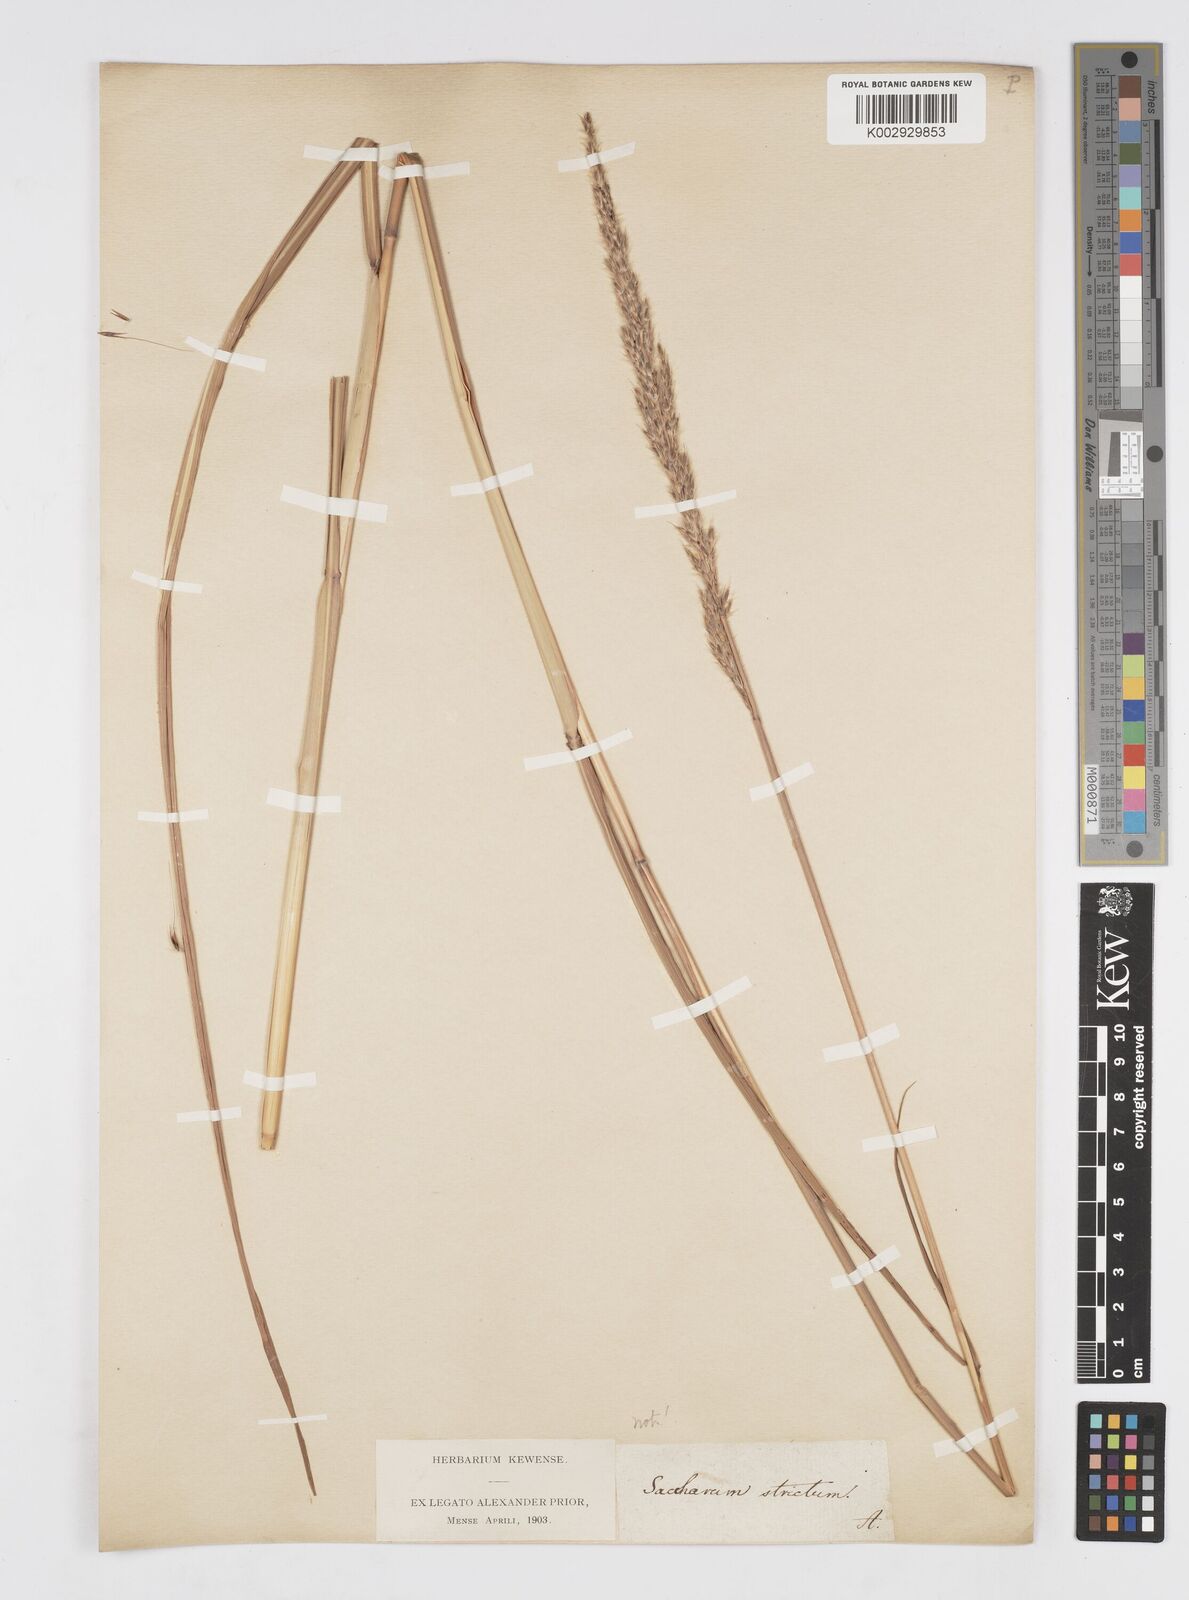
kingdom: Plantae
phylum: Tracheophyta
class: Liliopsida
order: Poales
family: Poaceae
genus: Saccharum
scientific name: Saccharum
